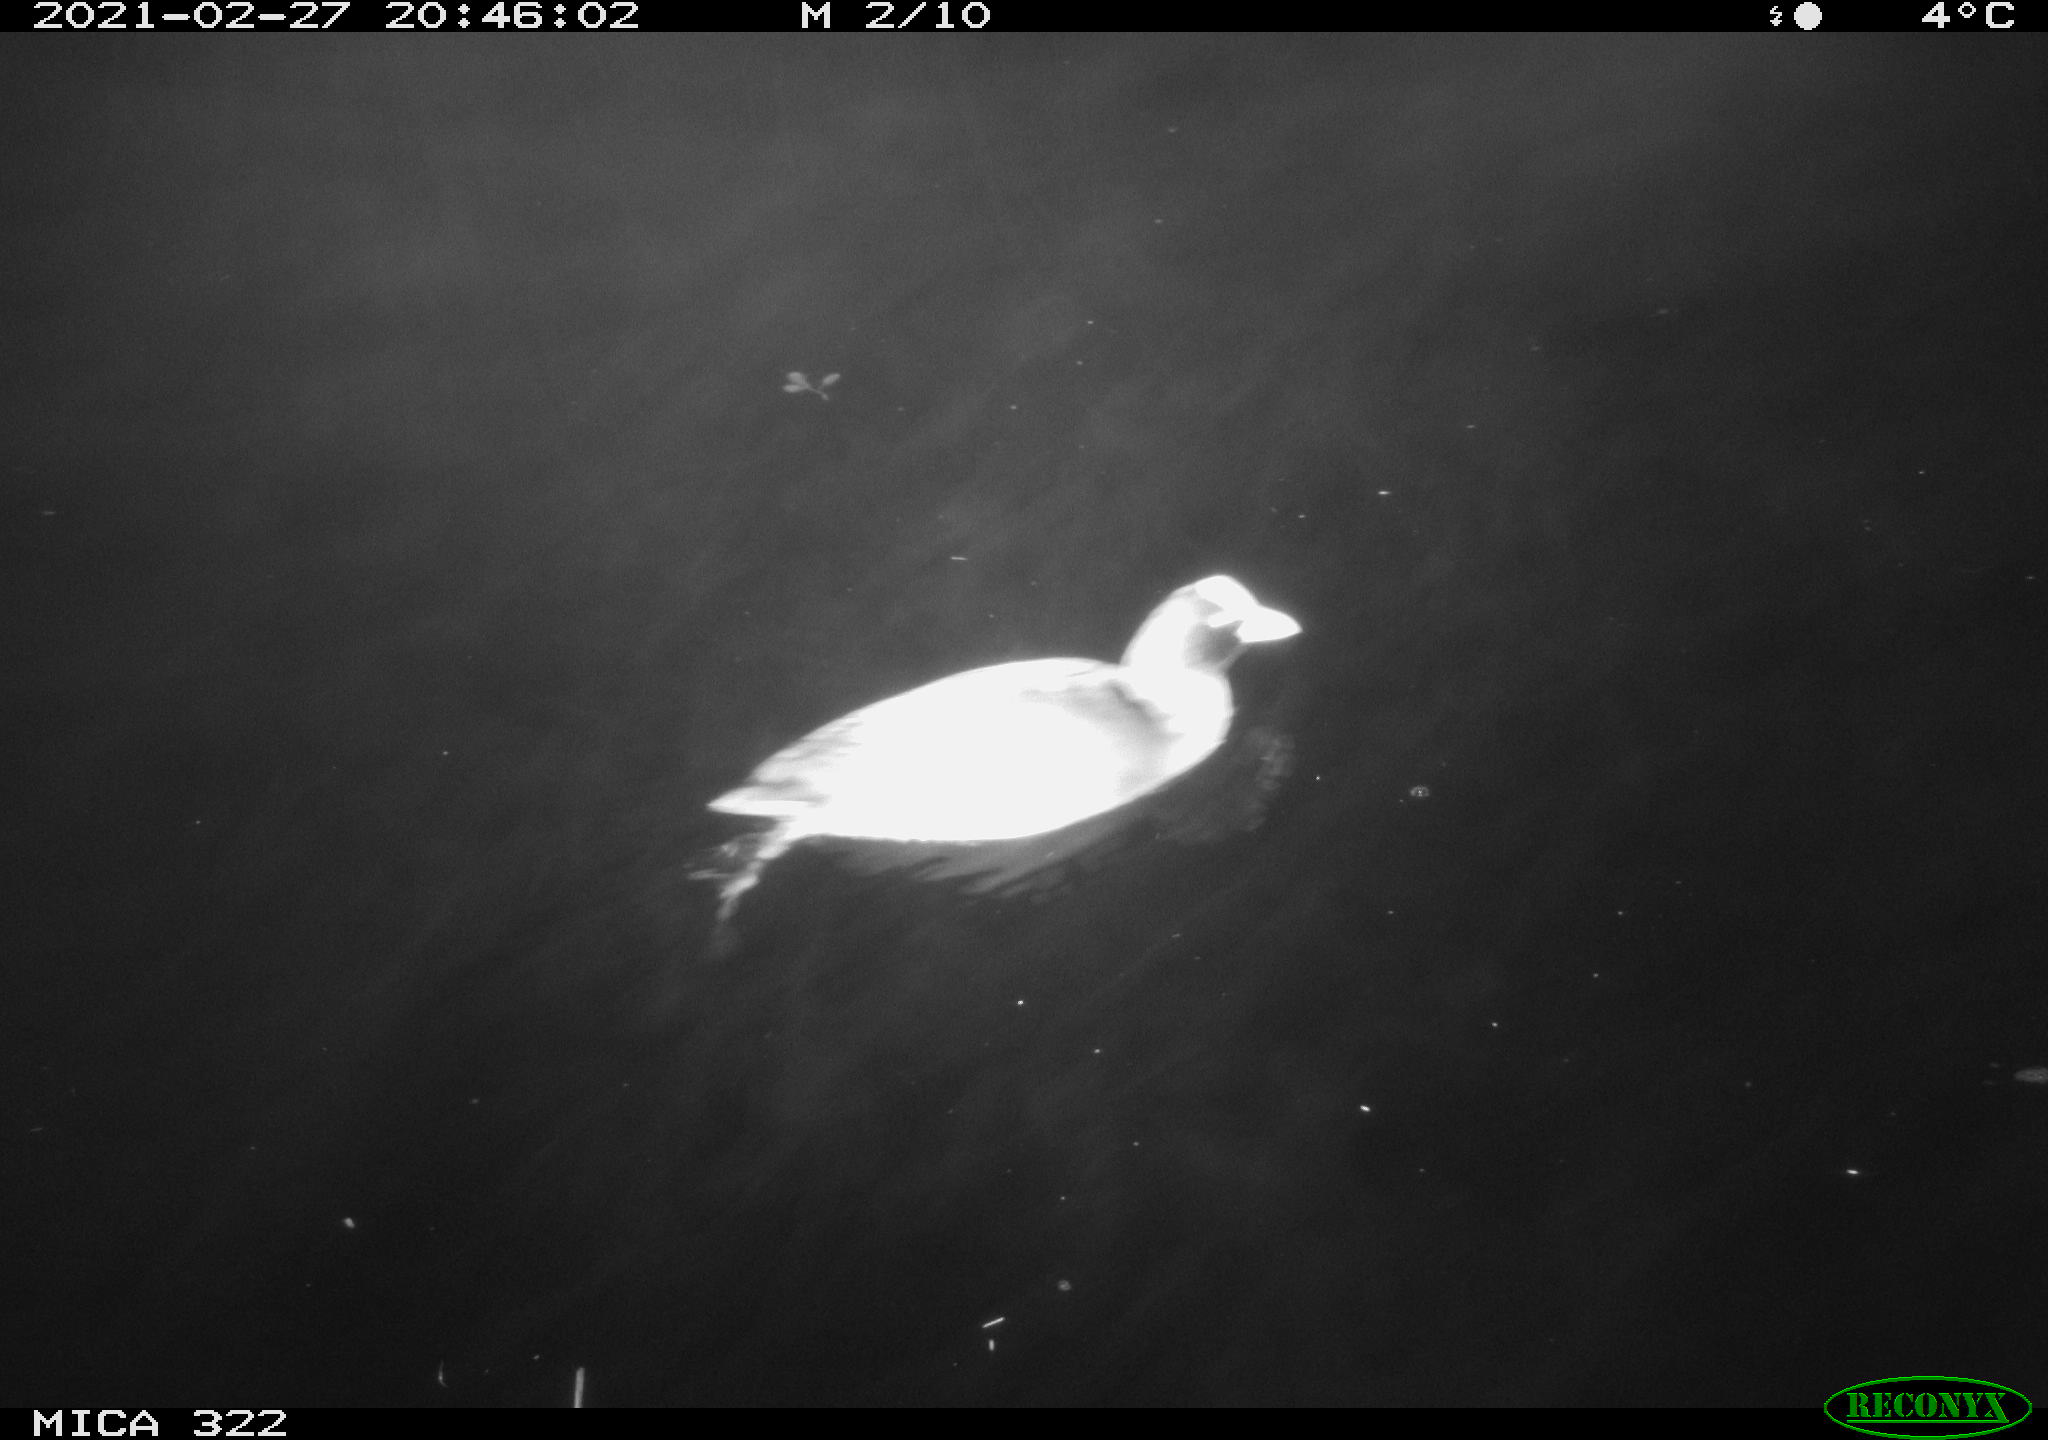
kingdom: Animalia
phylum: Chordata
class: Aves
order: Gruiformes
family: Rallidae
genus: Fulica
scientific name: Fulica atra
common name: Eurasian coot
